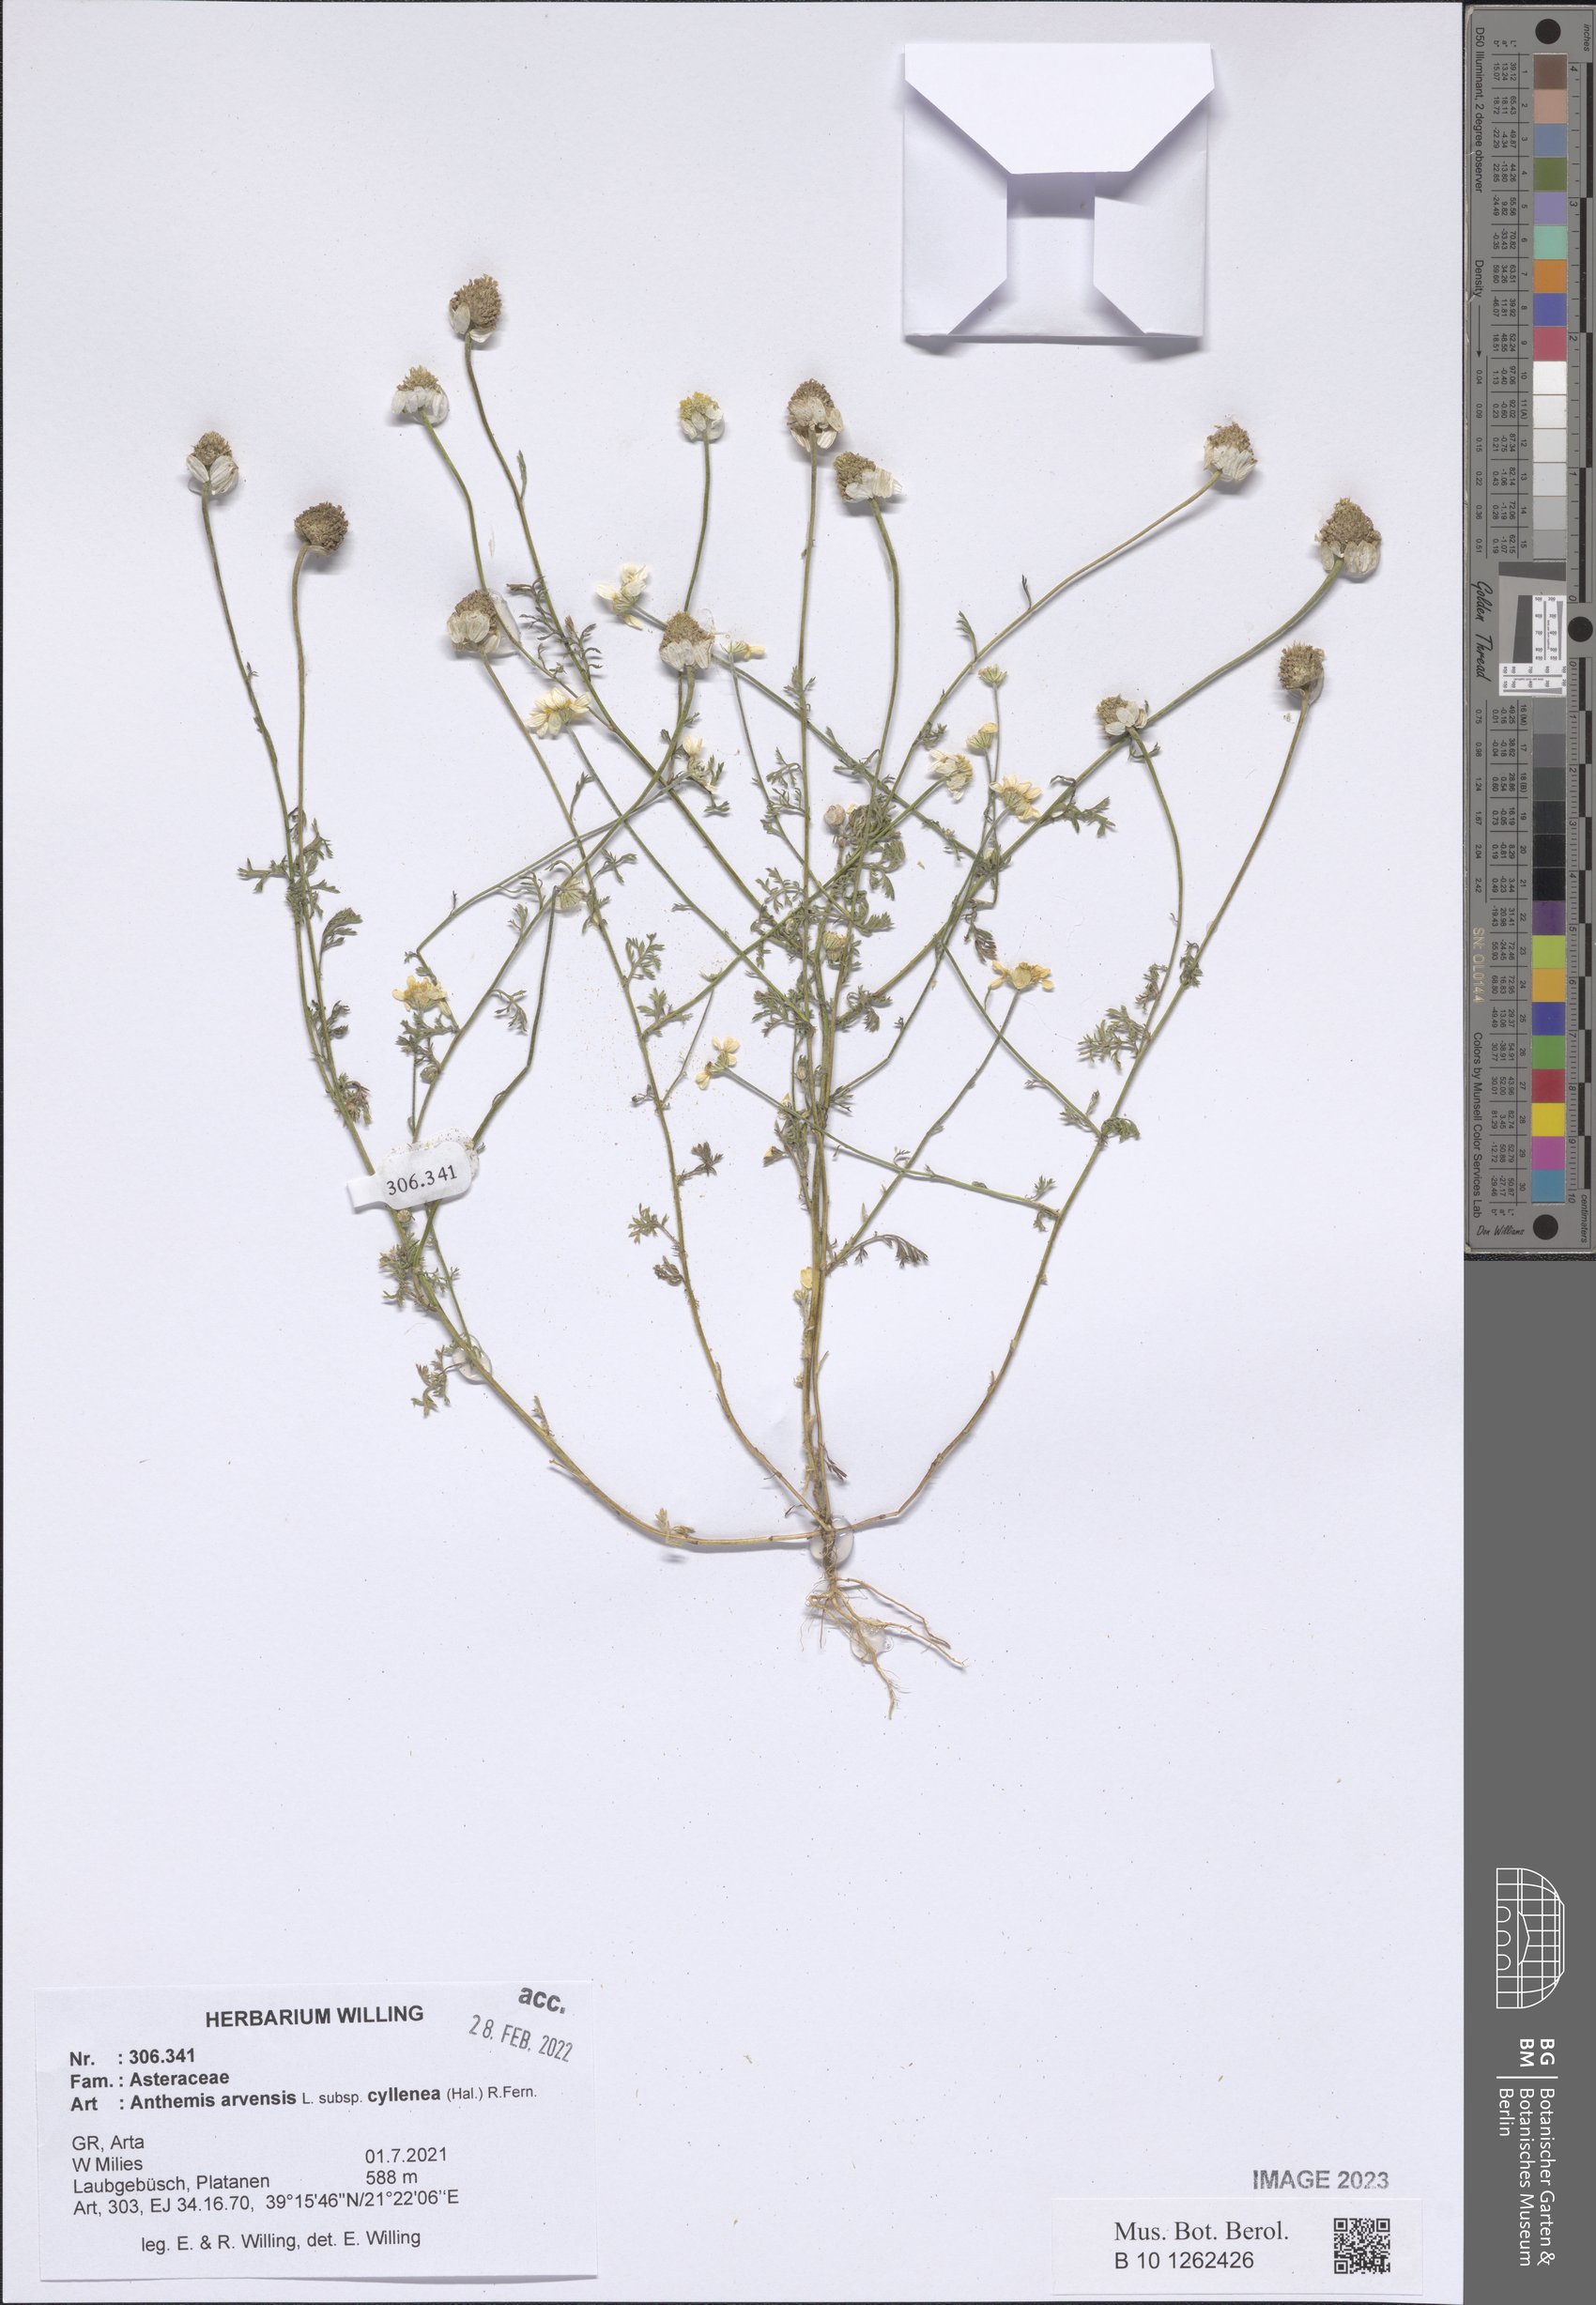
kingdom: Plantae
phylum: Tracheophyta
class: Magnoliopsida
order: Asterales
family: Asteraceae
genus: Anthemis
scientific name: Anthemis arvensis
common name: Corn chamomile
